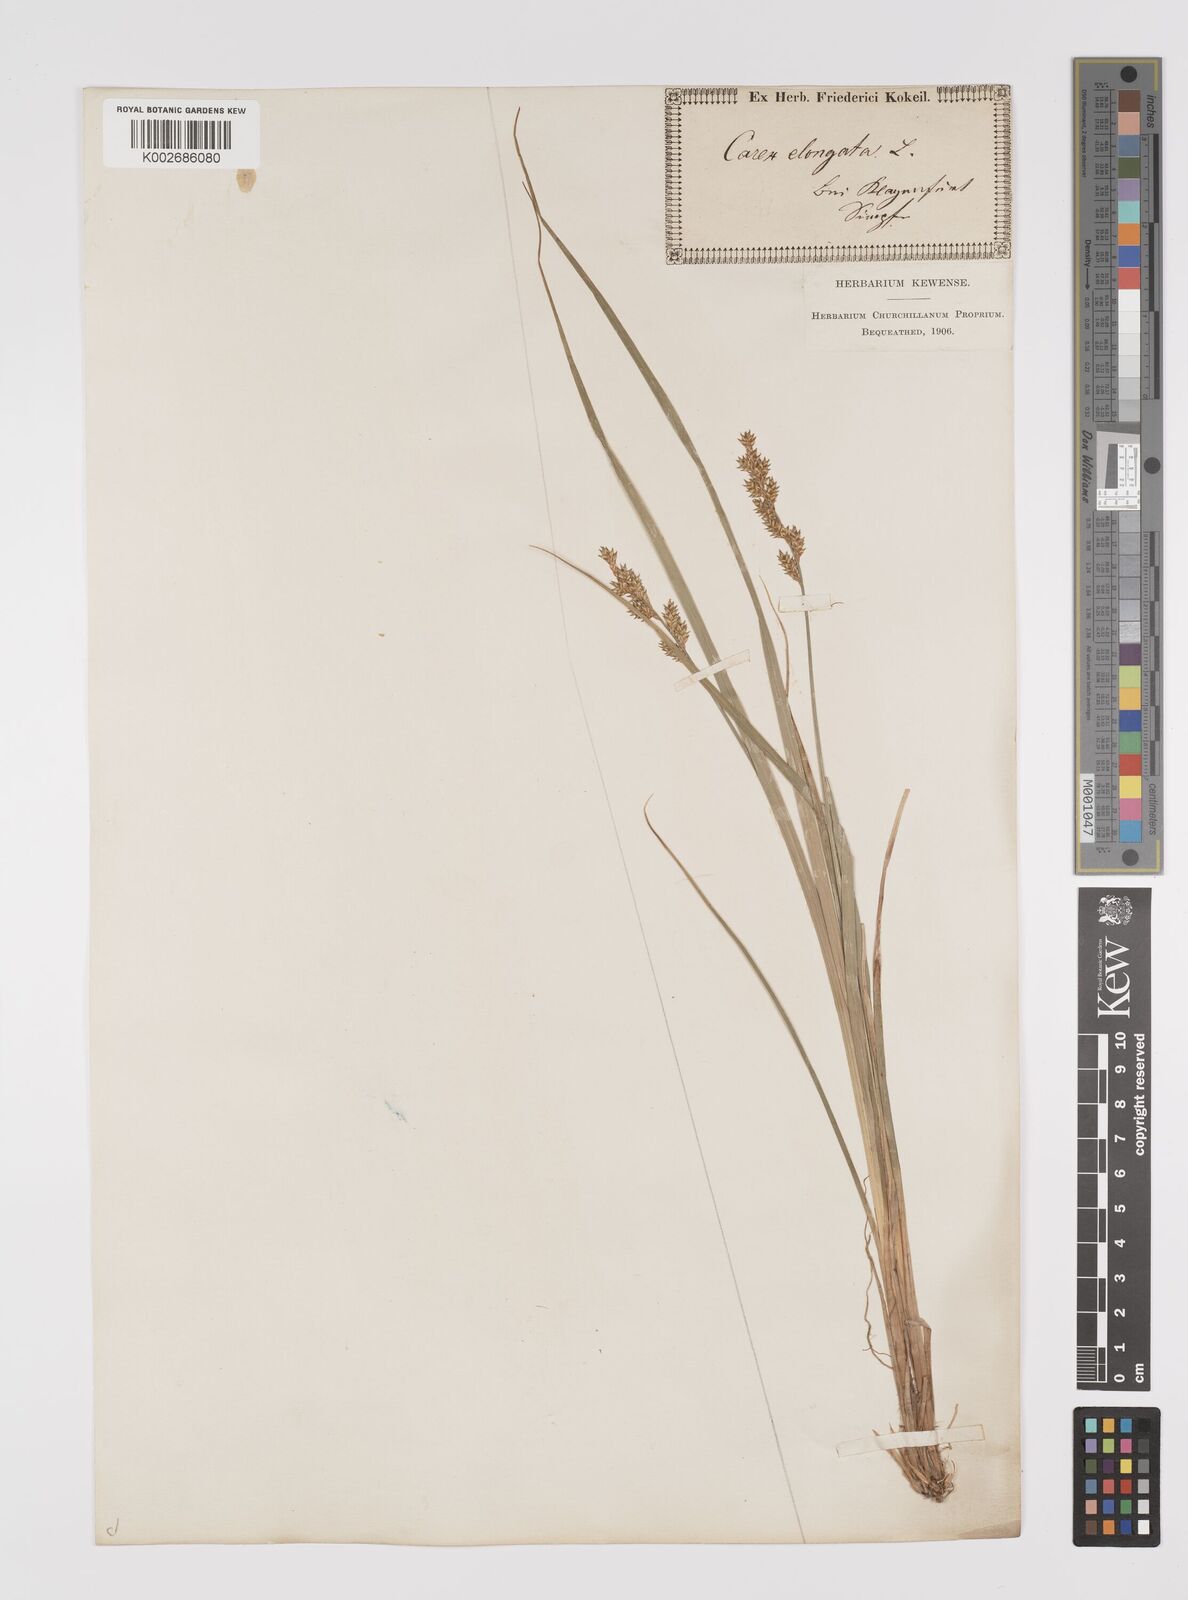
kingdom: Plantae
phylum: Tracheophyta
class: Liliopsida
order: Poales
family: Cyperaceae
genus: Carex
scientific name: Carex elongata
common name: Elongated sedge
